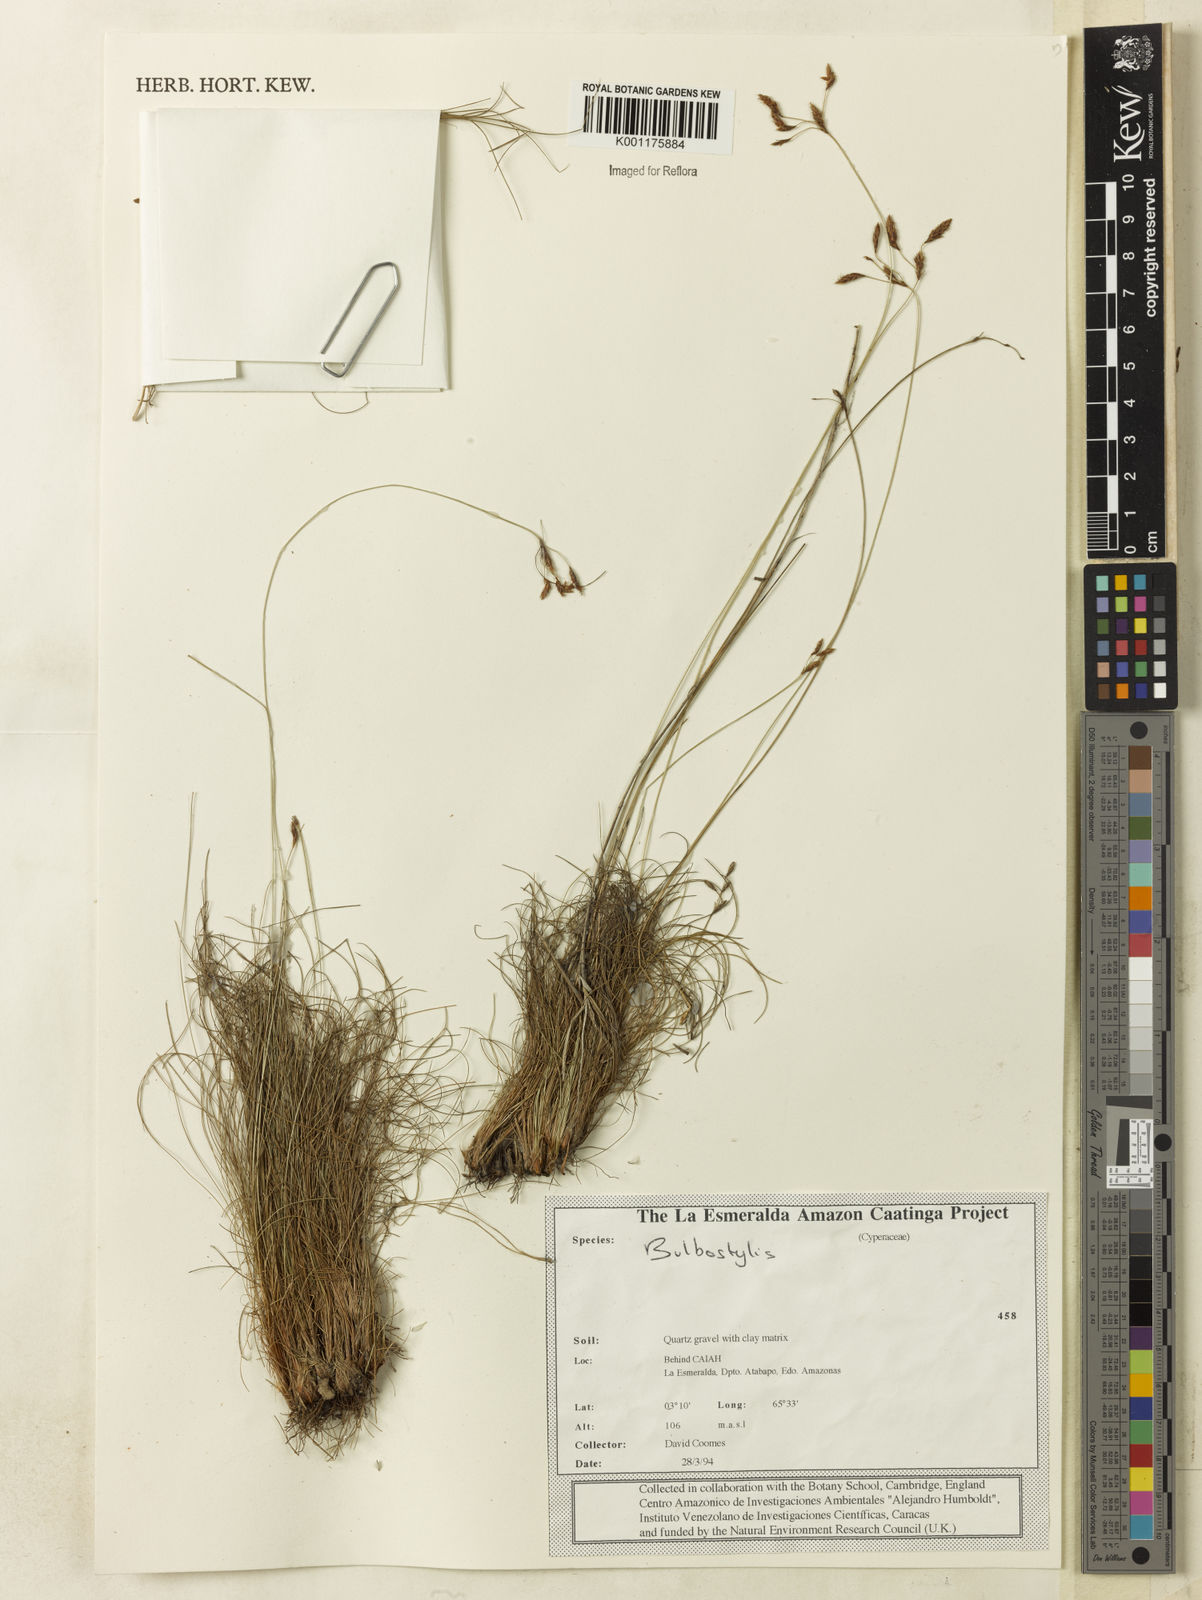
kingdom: Plantae
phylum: Tracheophyta
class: Liliopsida
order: Poales
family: Cyperaceae
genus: Bulbostylis
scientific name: Bulbostylis
